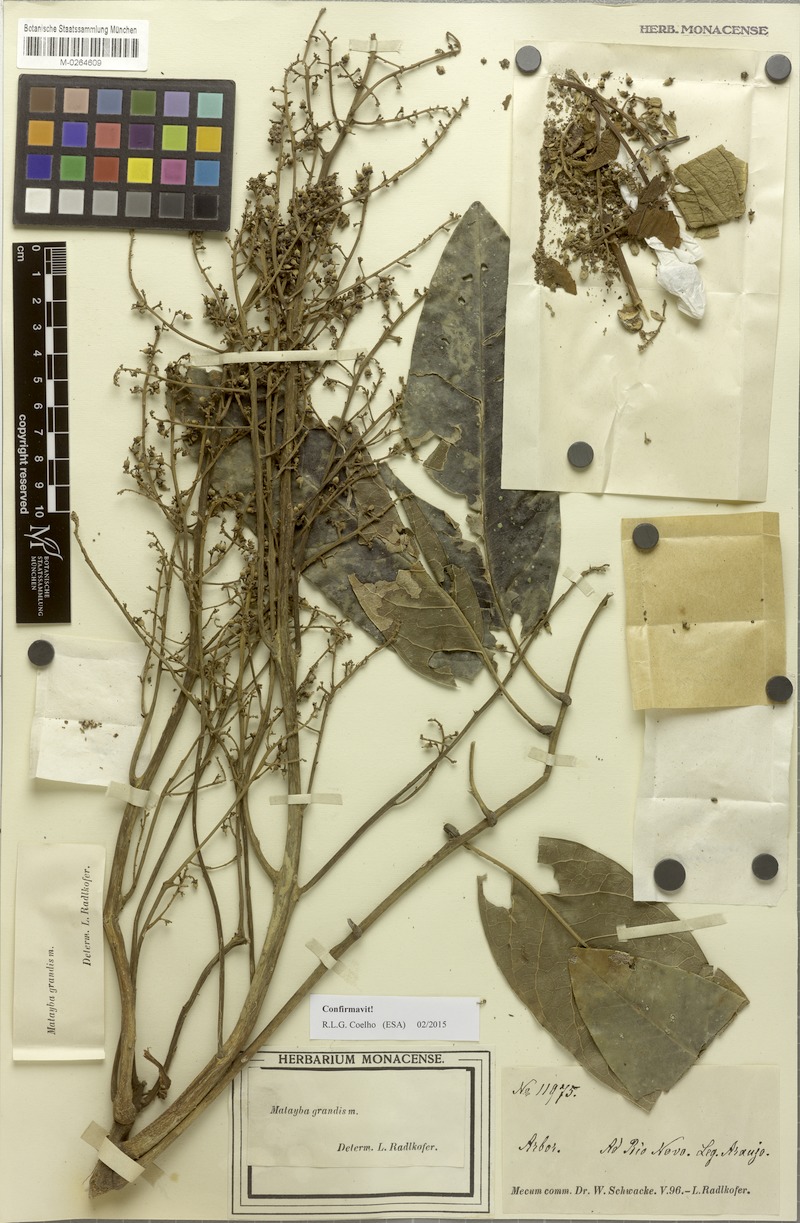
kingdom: Plantae
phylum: Tracheophyta
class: Magnoliopsida
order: Sapindales
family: Sapindaceae
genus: Matayba
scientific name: Matayba grandis
